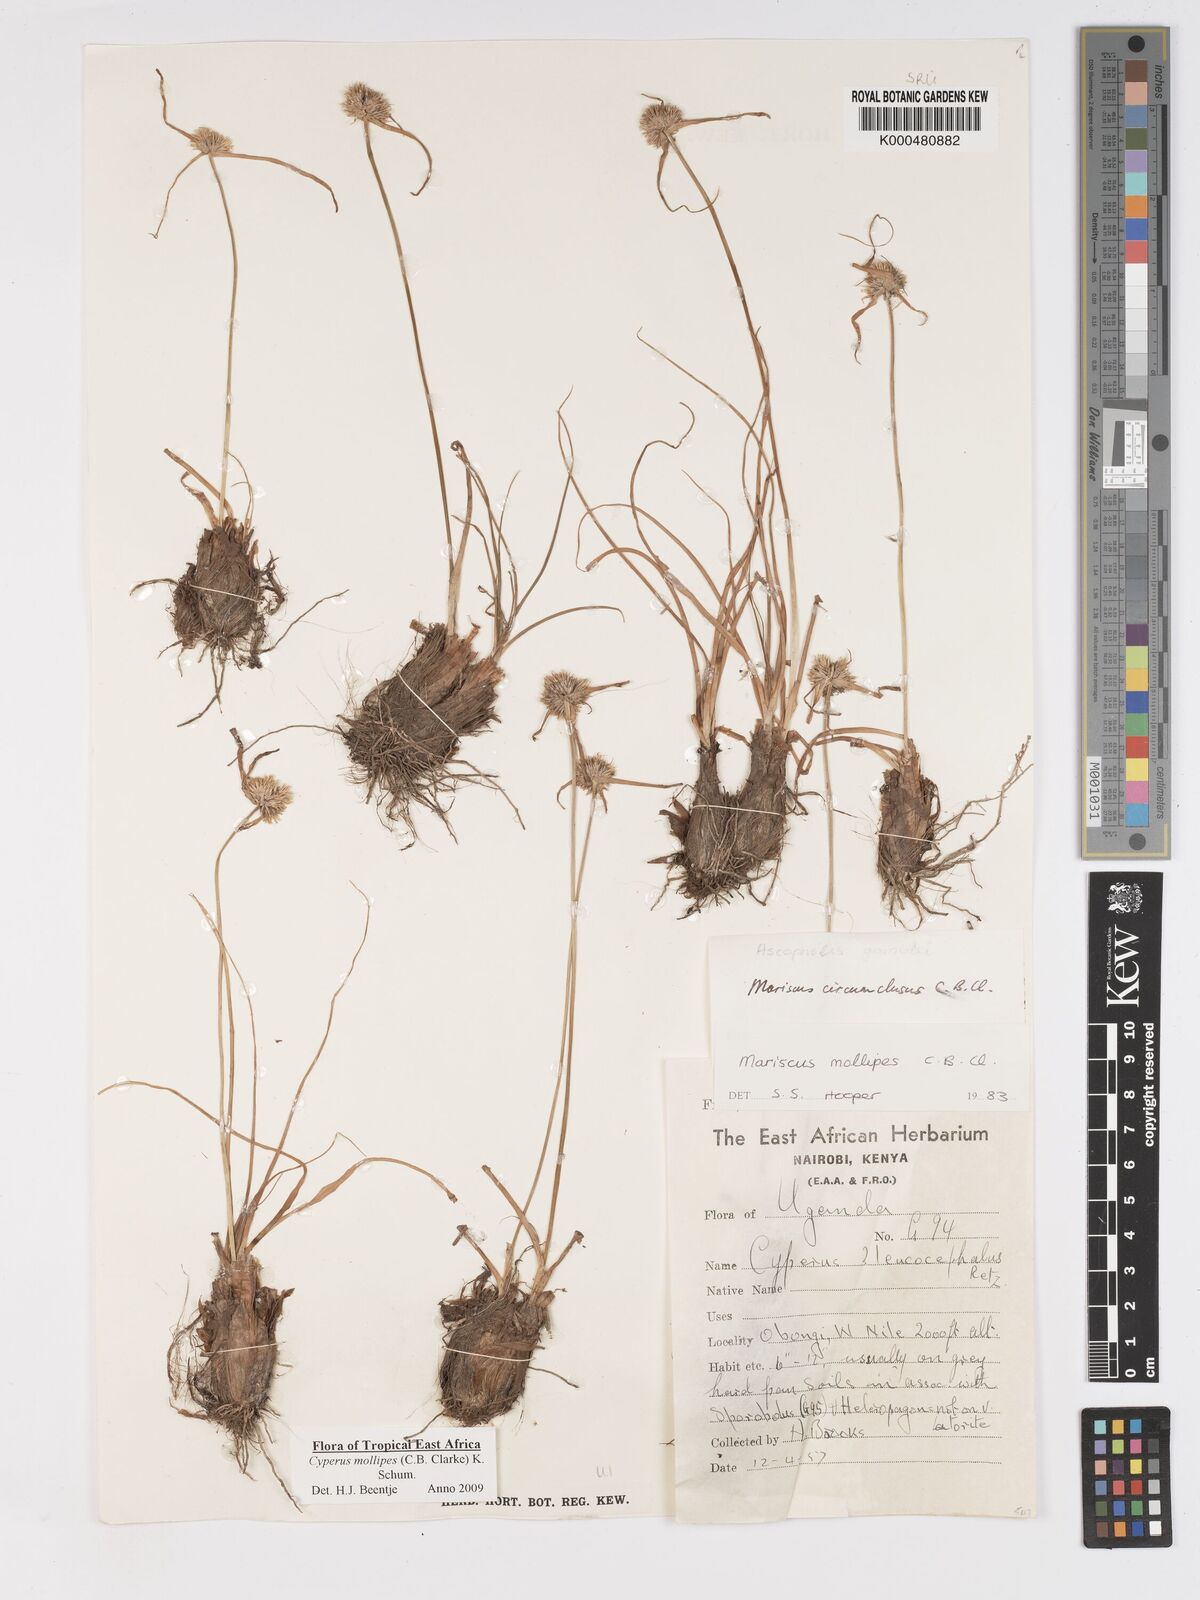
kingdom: Plantae
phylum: Tracheophyta
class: Liliopsida
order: Poales
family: Cyperaceae
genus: Cyperus
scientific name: Cyperus mollipes
